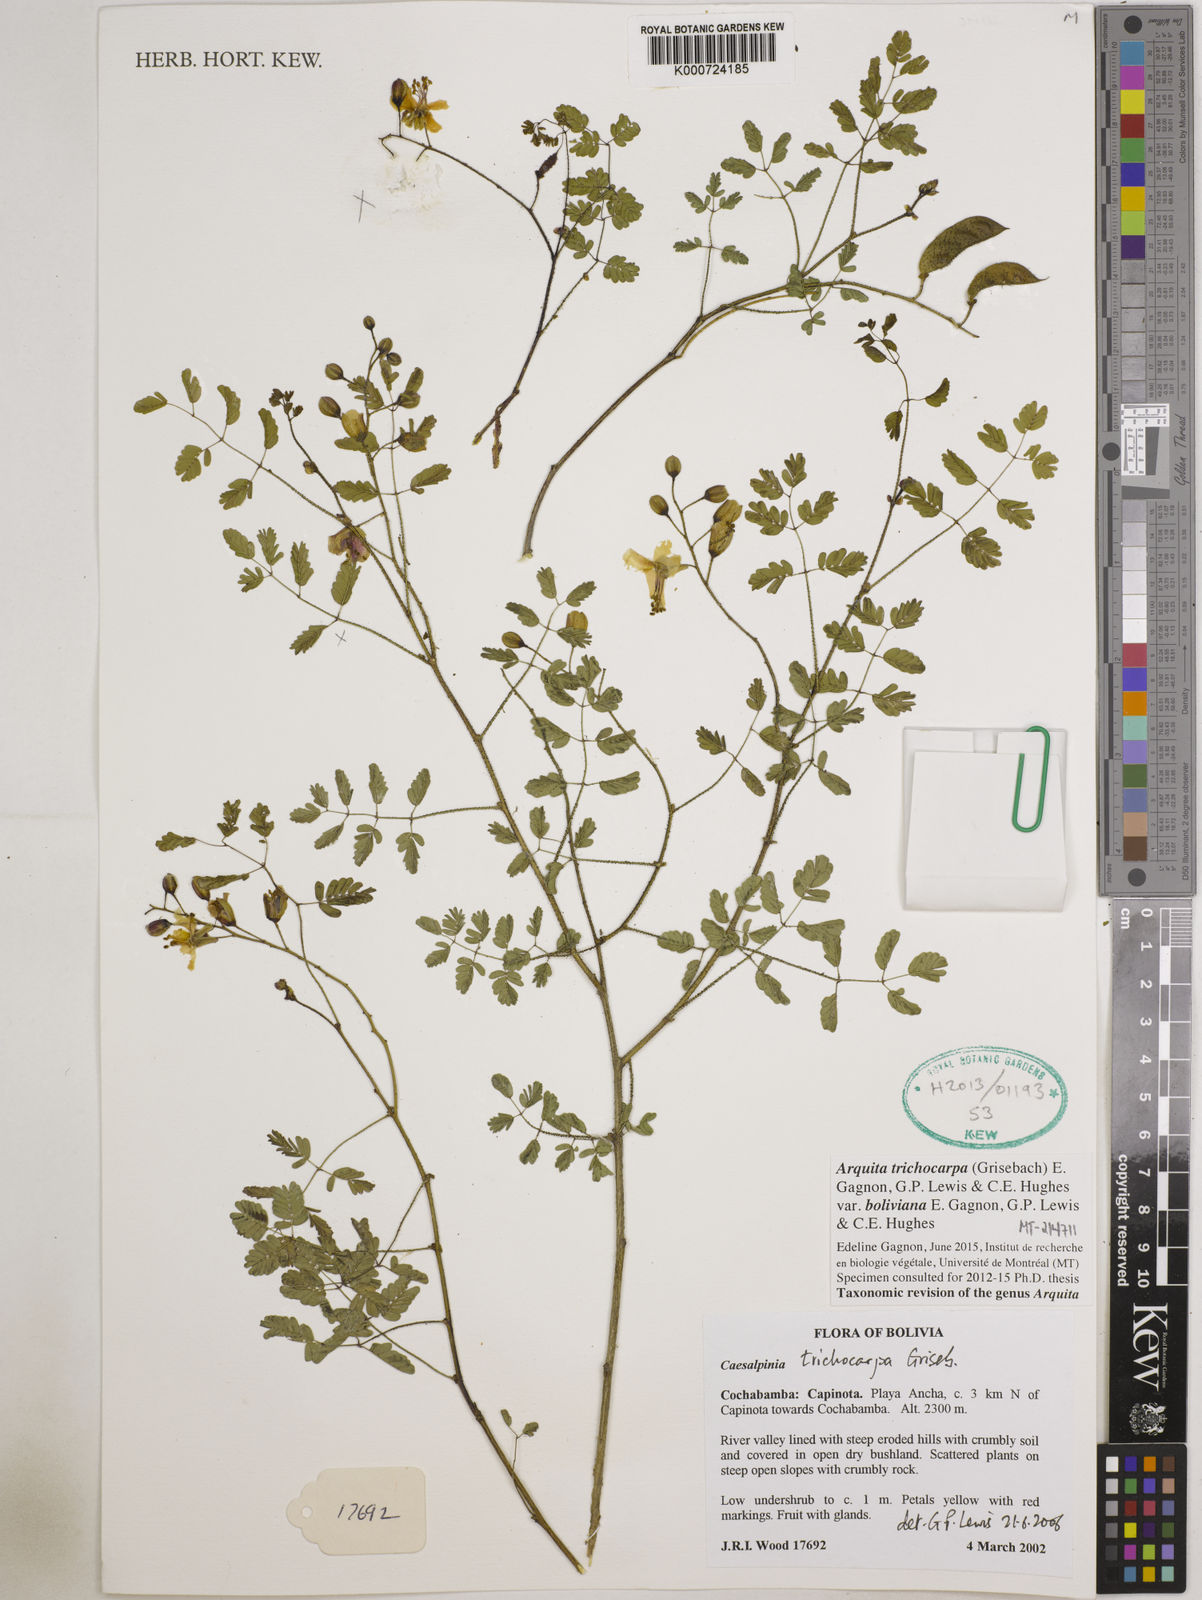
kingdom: Plantae
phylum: Tracheophyta
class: Magnoliopsida
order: Fabales
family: Fabaceae
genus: Arquita
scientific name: Arquita trichocarpa
